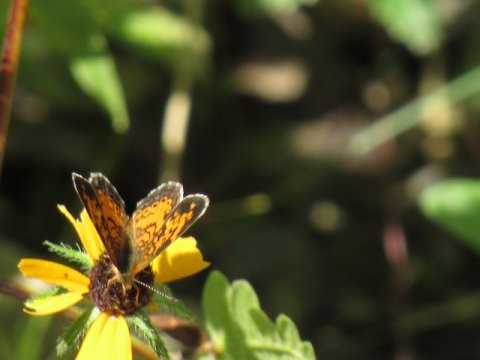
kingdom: Animalia
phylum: Arthropoda
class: Insecta
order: Lepidoptera
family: Nymphalidae
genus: Phyciodes
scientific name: Phyciodes tharos
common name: Pearl Crescent
